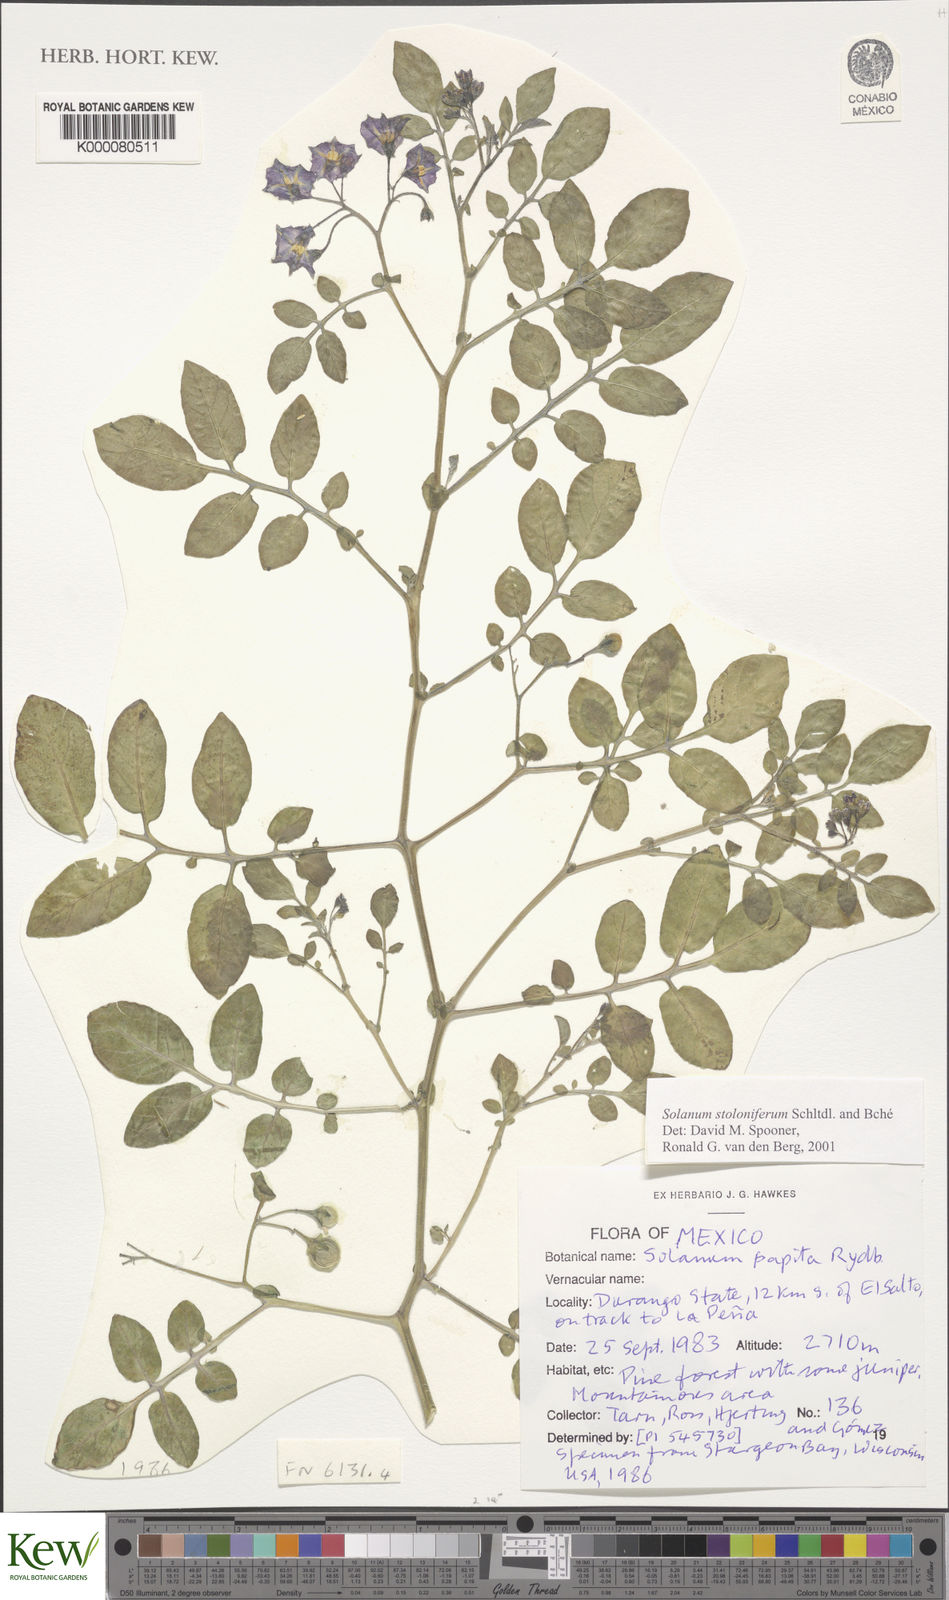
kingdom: Plantae
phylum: Tracheophyta
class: Magnoliopsida
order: Solanales
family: Solanaceae
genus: Solanum
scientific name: Solanum stoloniferum
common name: Fendler's nighshade
